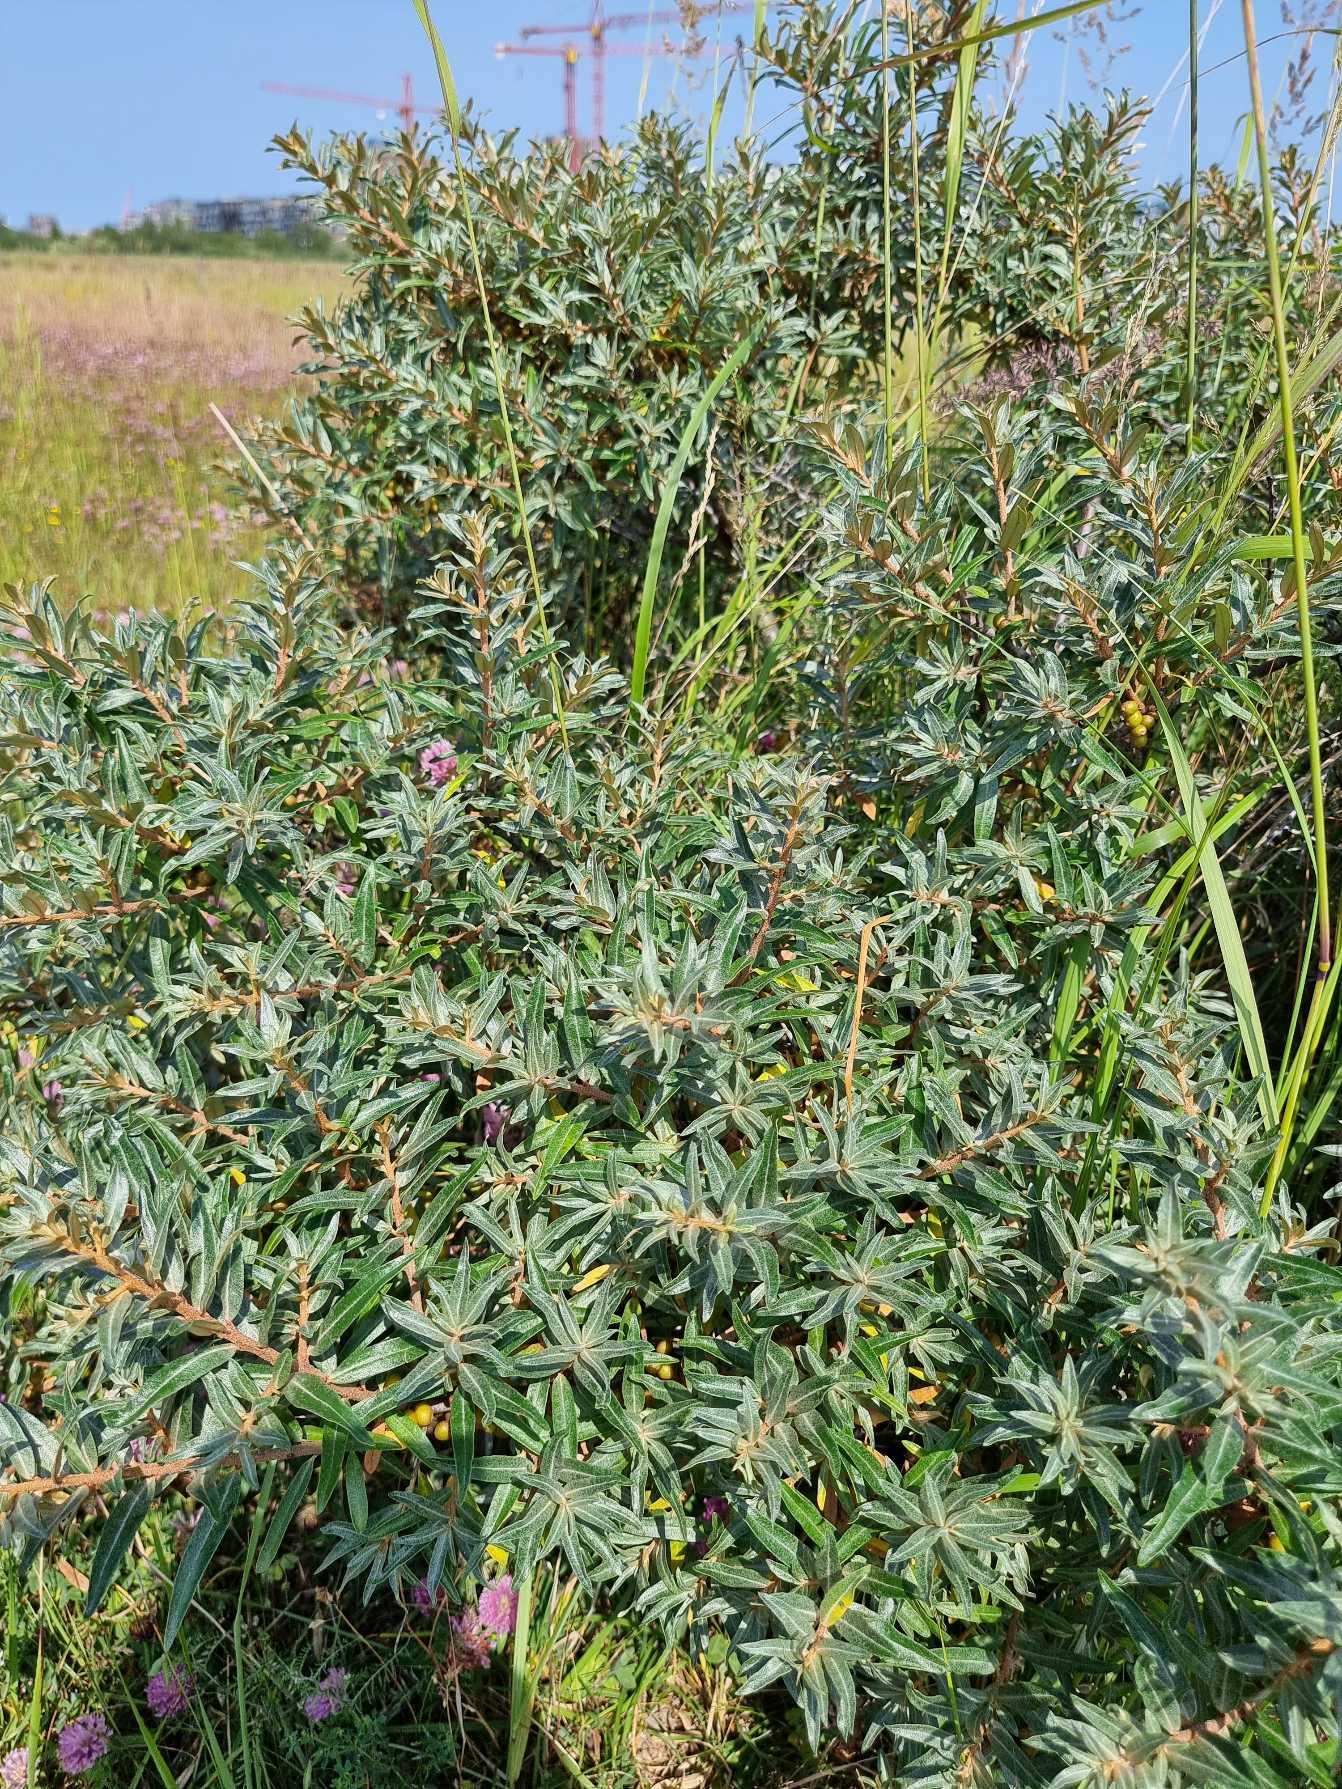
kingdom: Plantae
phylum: Tracheophyta
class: Magnoliopsida
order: Rosales
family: Elaeagnaceae
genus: Hippophae
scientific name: Hippophae rhamnoides
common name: Havtorn
